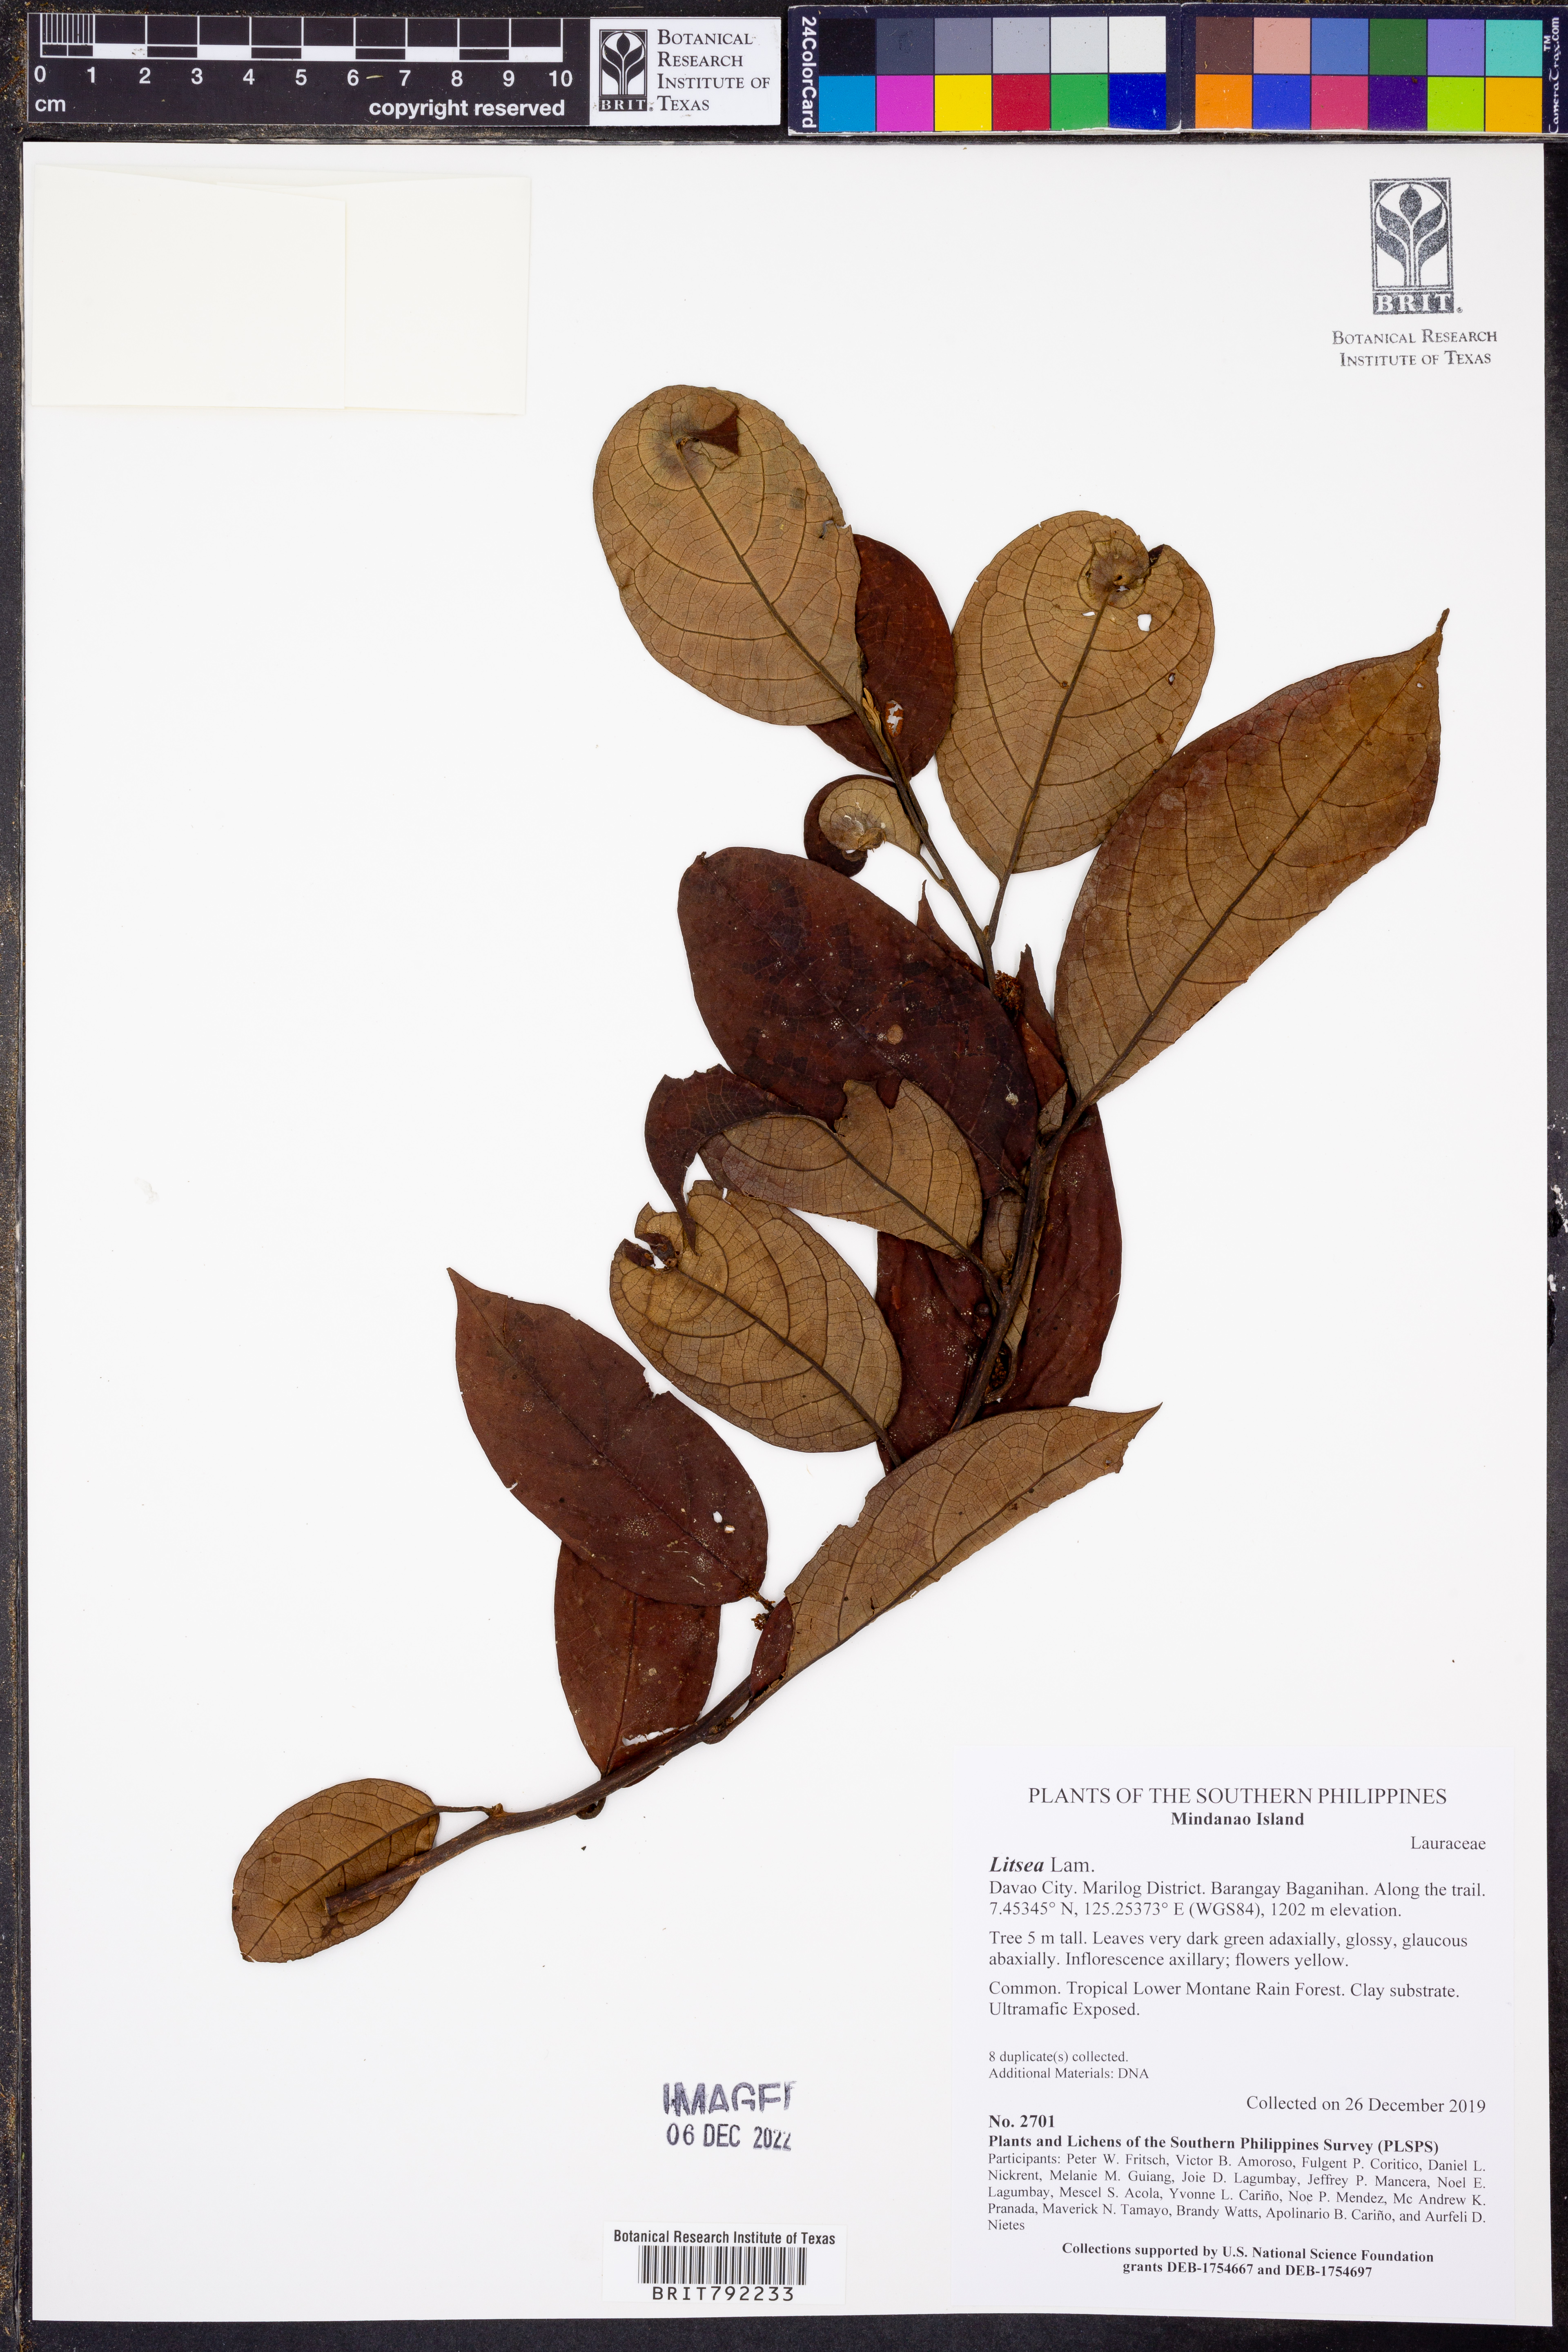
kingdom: Plantae
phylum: Tracheophyta
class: Magnoliopsida
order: Laurales
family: Lauraceae
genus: Litsea
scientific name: Litsea
